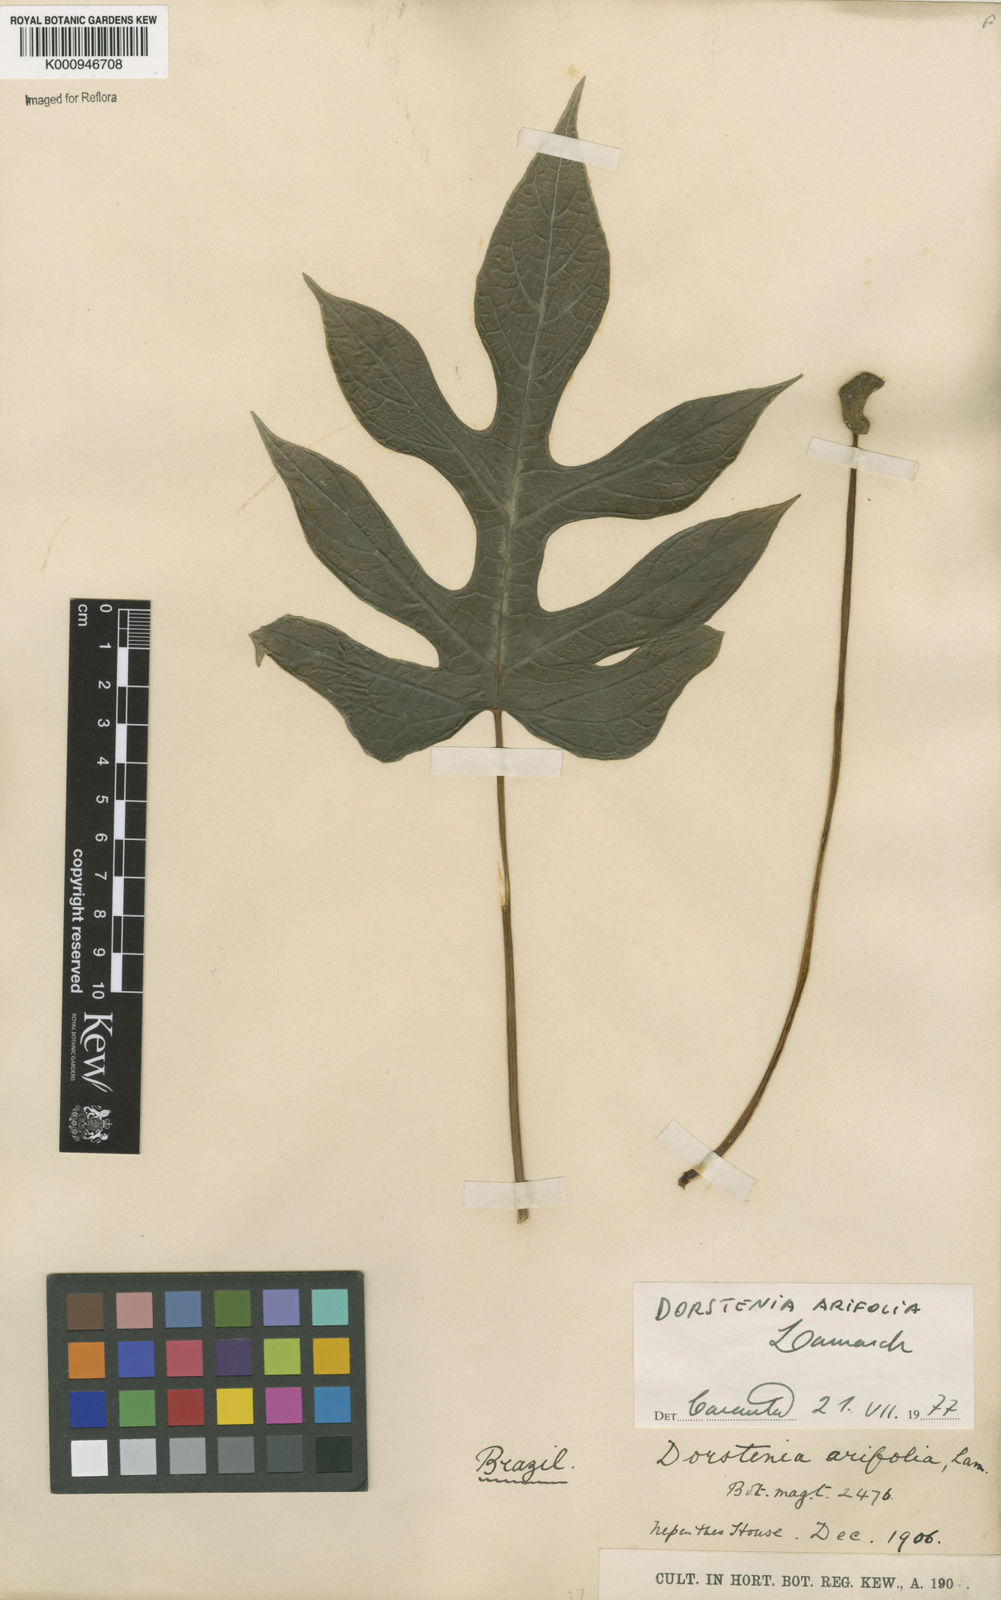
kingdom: Plantae
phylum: Tracheophyta
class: Magnoliopsida
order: Rosales
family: Moraceae
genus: Dorstenia
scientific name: Dorstenia arifolia
